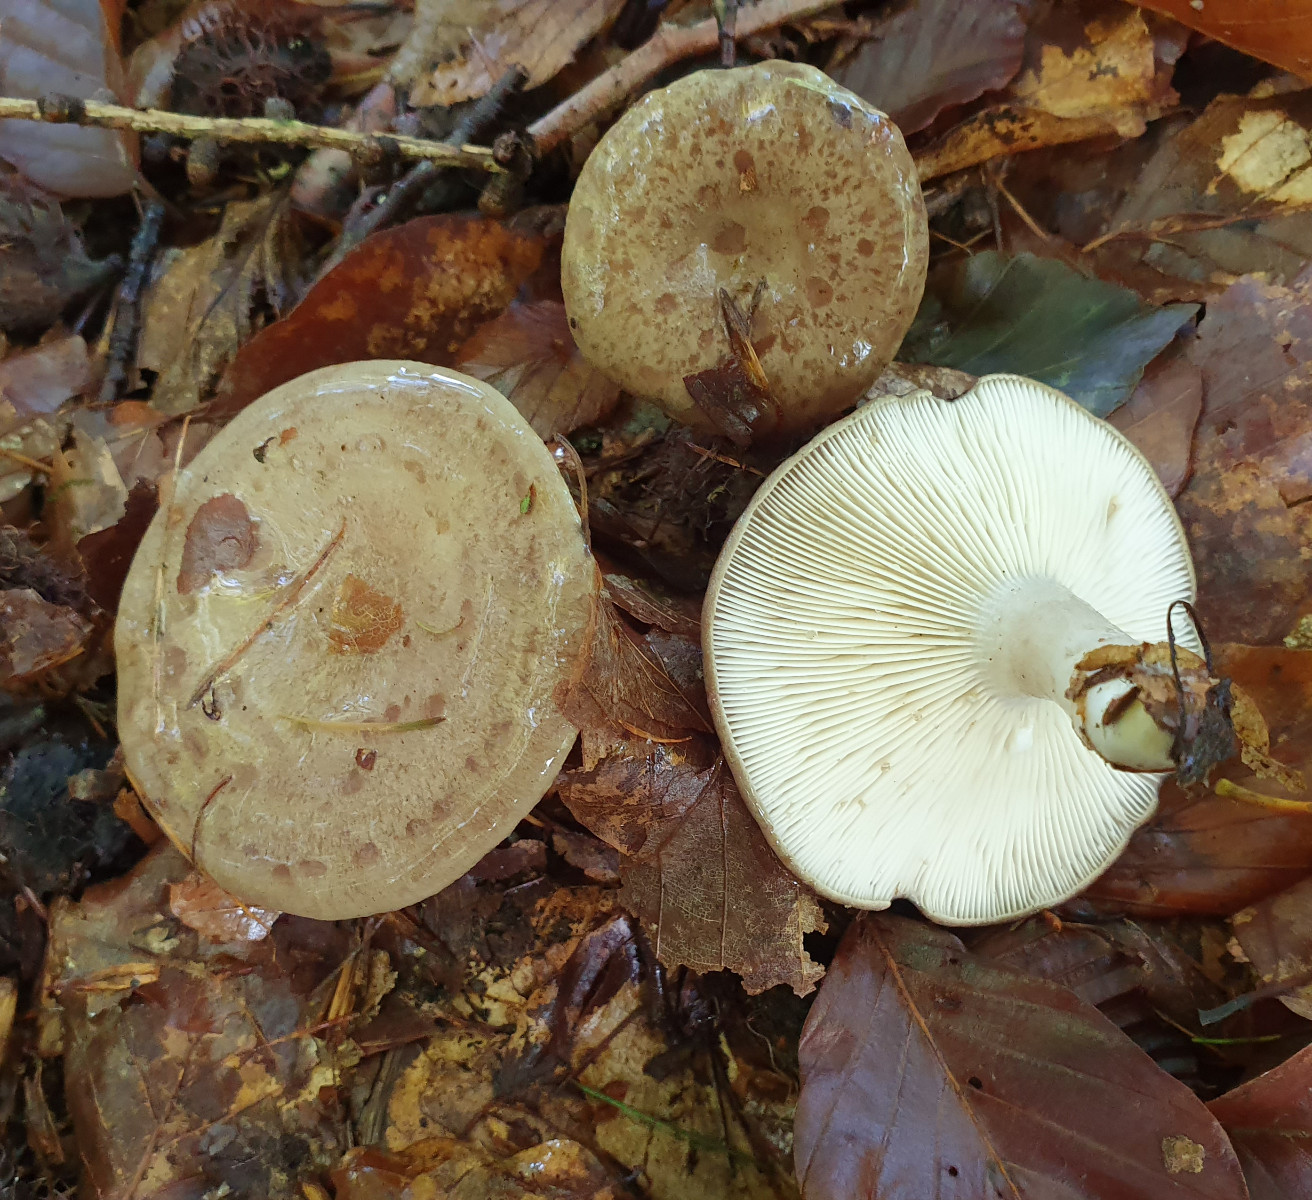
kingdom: Fungi
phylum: Basidiomycota
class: Agaricomycetes
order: Russulales
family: Russulaceae
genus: Lactarius
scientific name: Lactarius blennius
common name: dråbeplettet mælkehat
